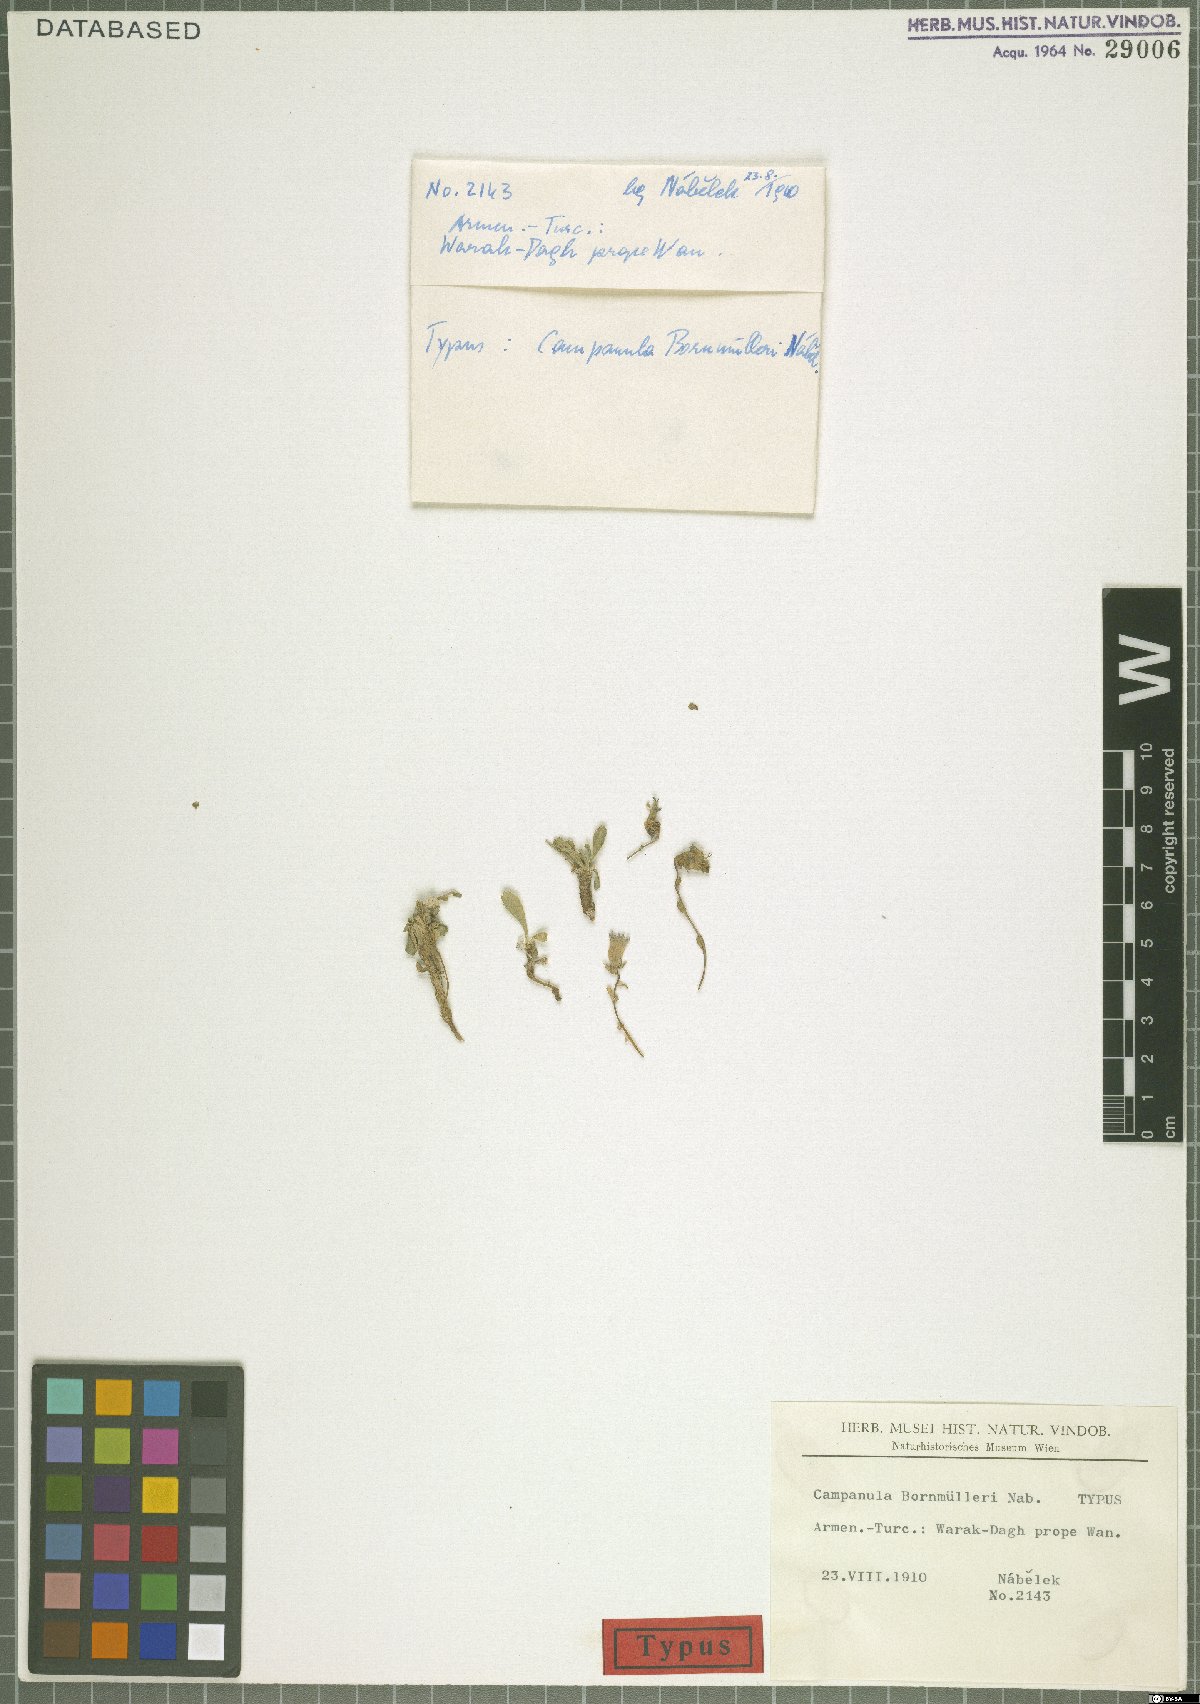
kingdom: Plantae
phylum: Tracheophyta
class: Magnoliopsida
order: Asterales
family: Campanulaceae
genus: Campanula
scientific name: Campanula bornmuelleri
